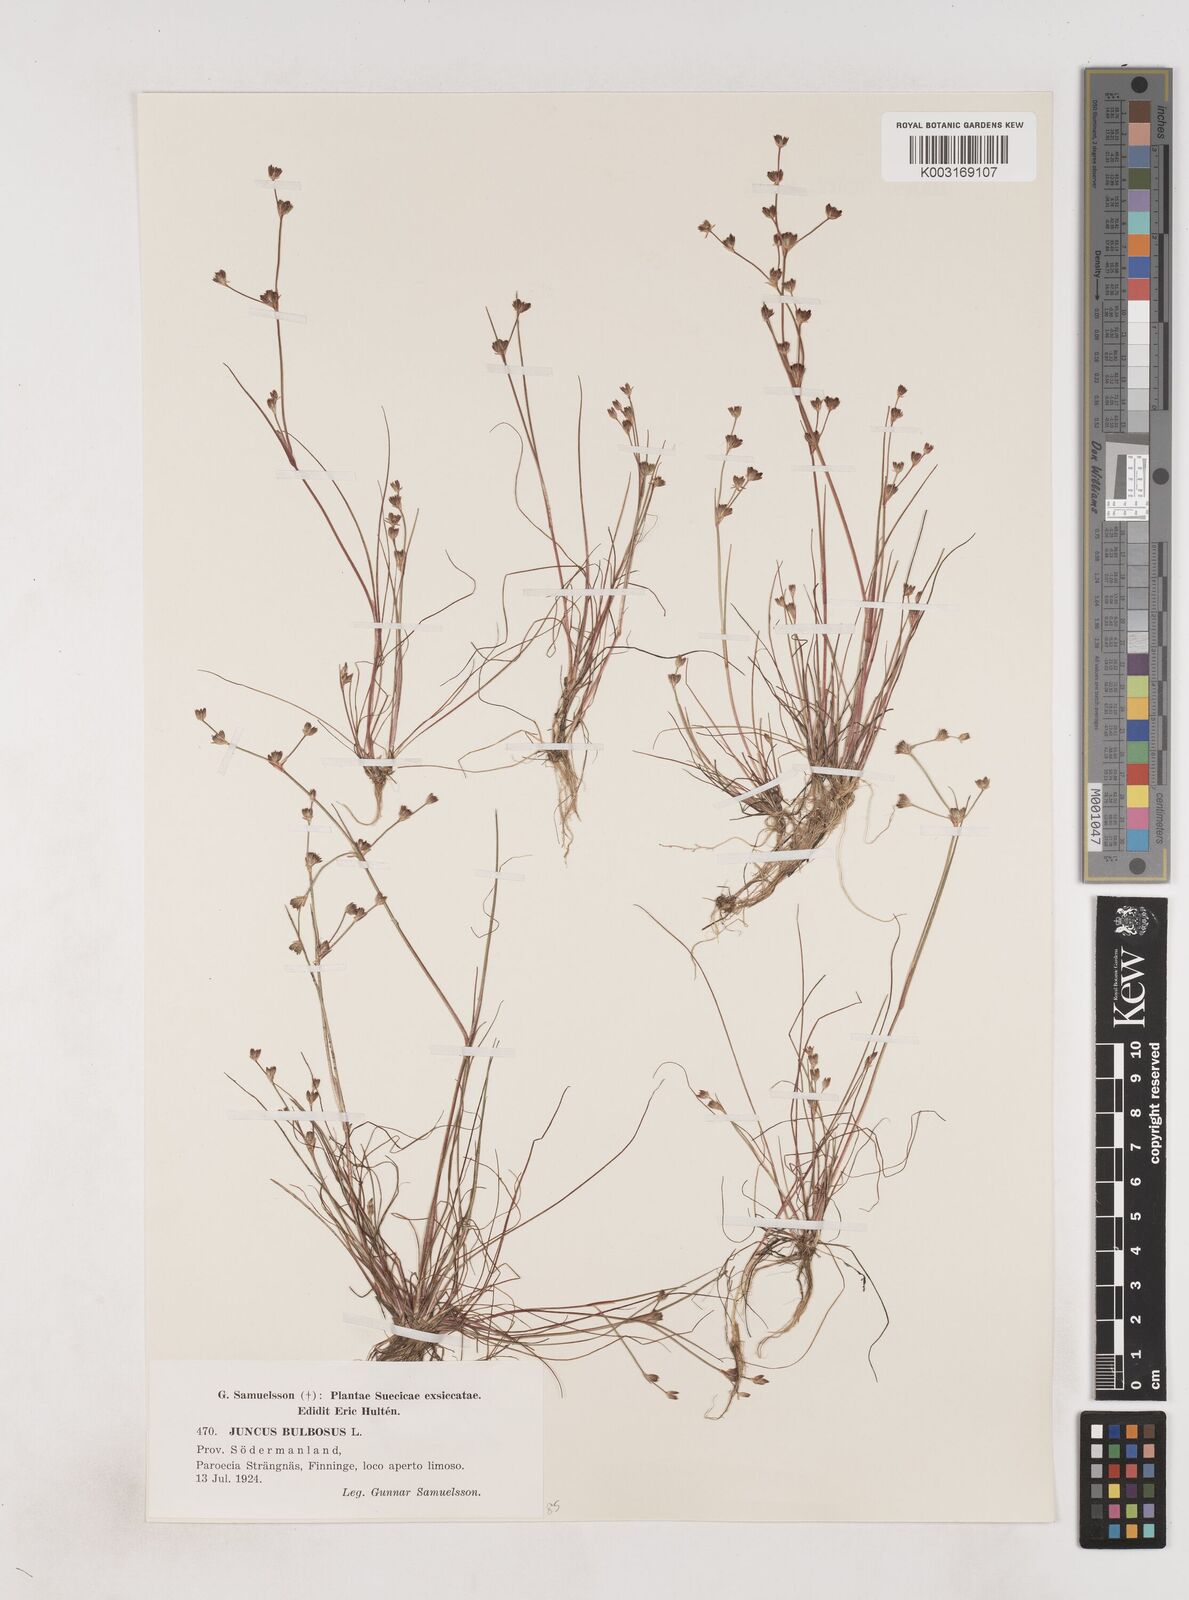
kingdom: Plantae
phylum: Tracheophyta
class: Liliopsida
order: Poales
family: Juncaceae
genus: Juncus
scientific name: Juncus bulbosus
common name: Bulbous rush
